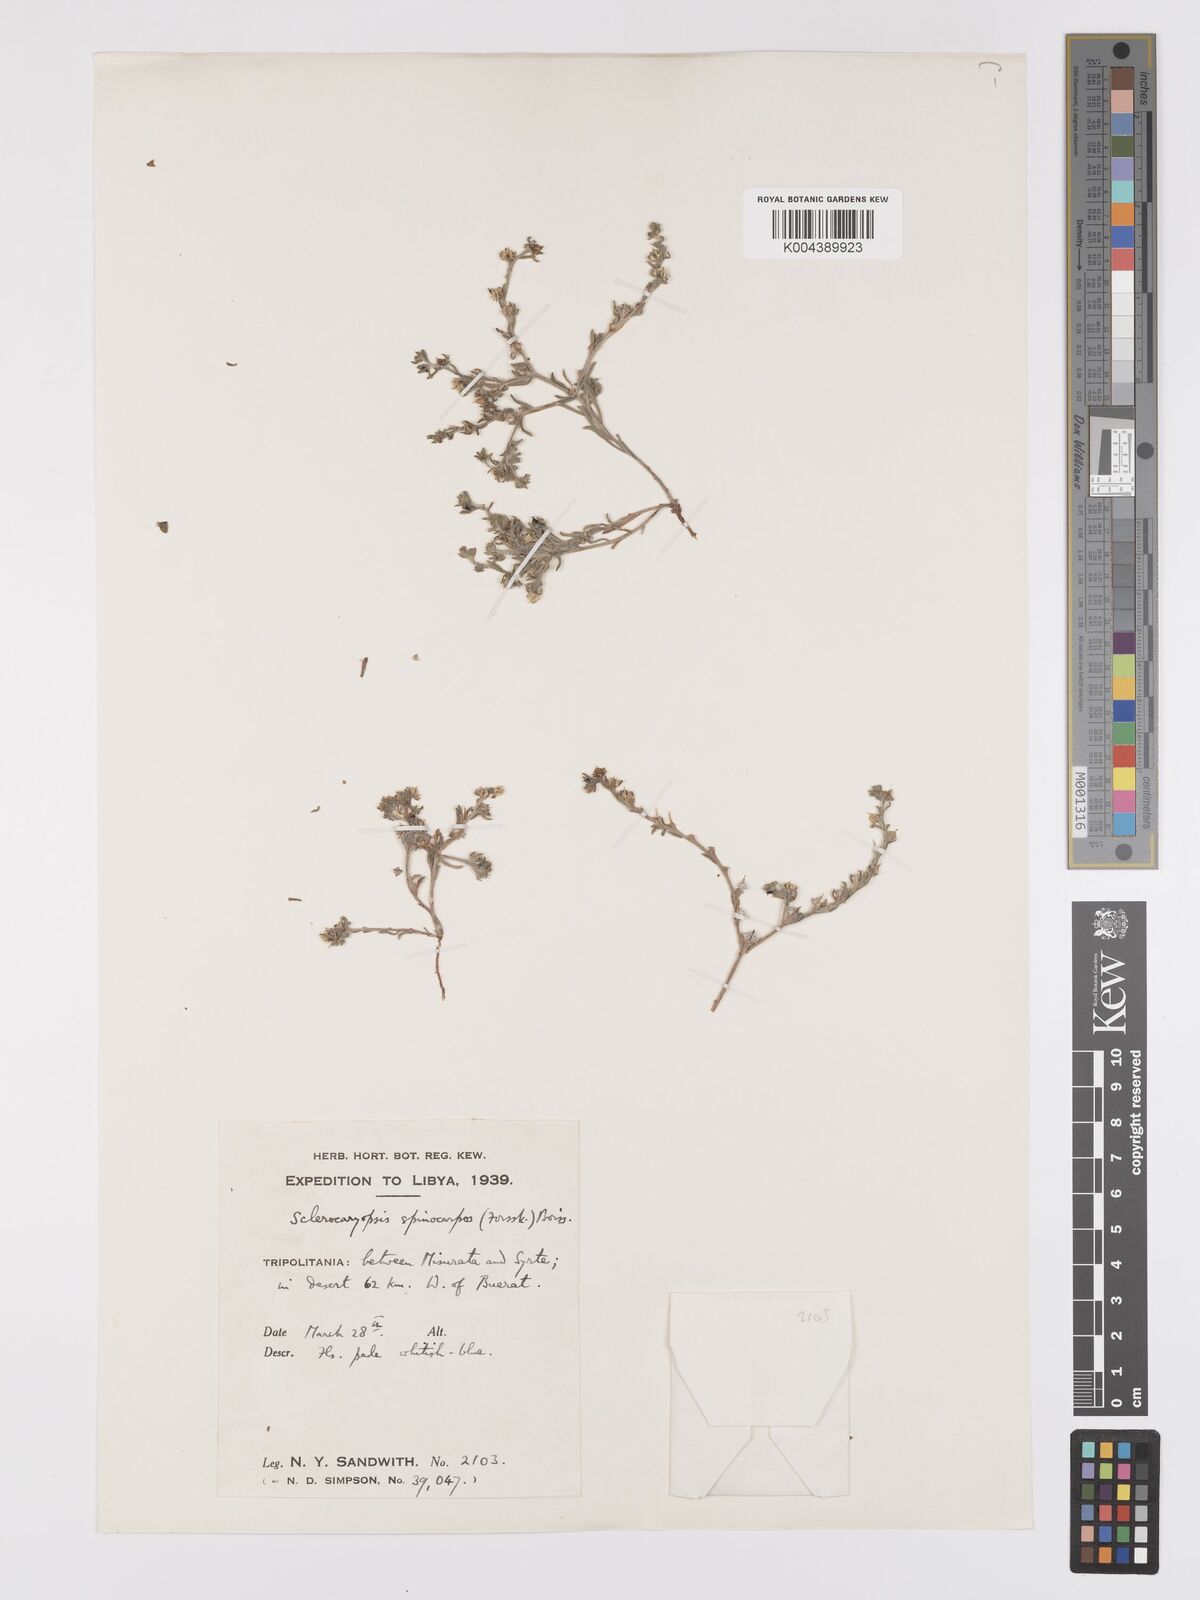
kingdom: Plantae
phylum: Tracheophyta
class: Magnoliopsida
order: Boraginales
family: Boraginaceae
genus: Lappula
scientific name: Lappula spinocarpos
